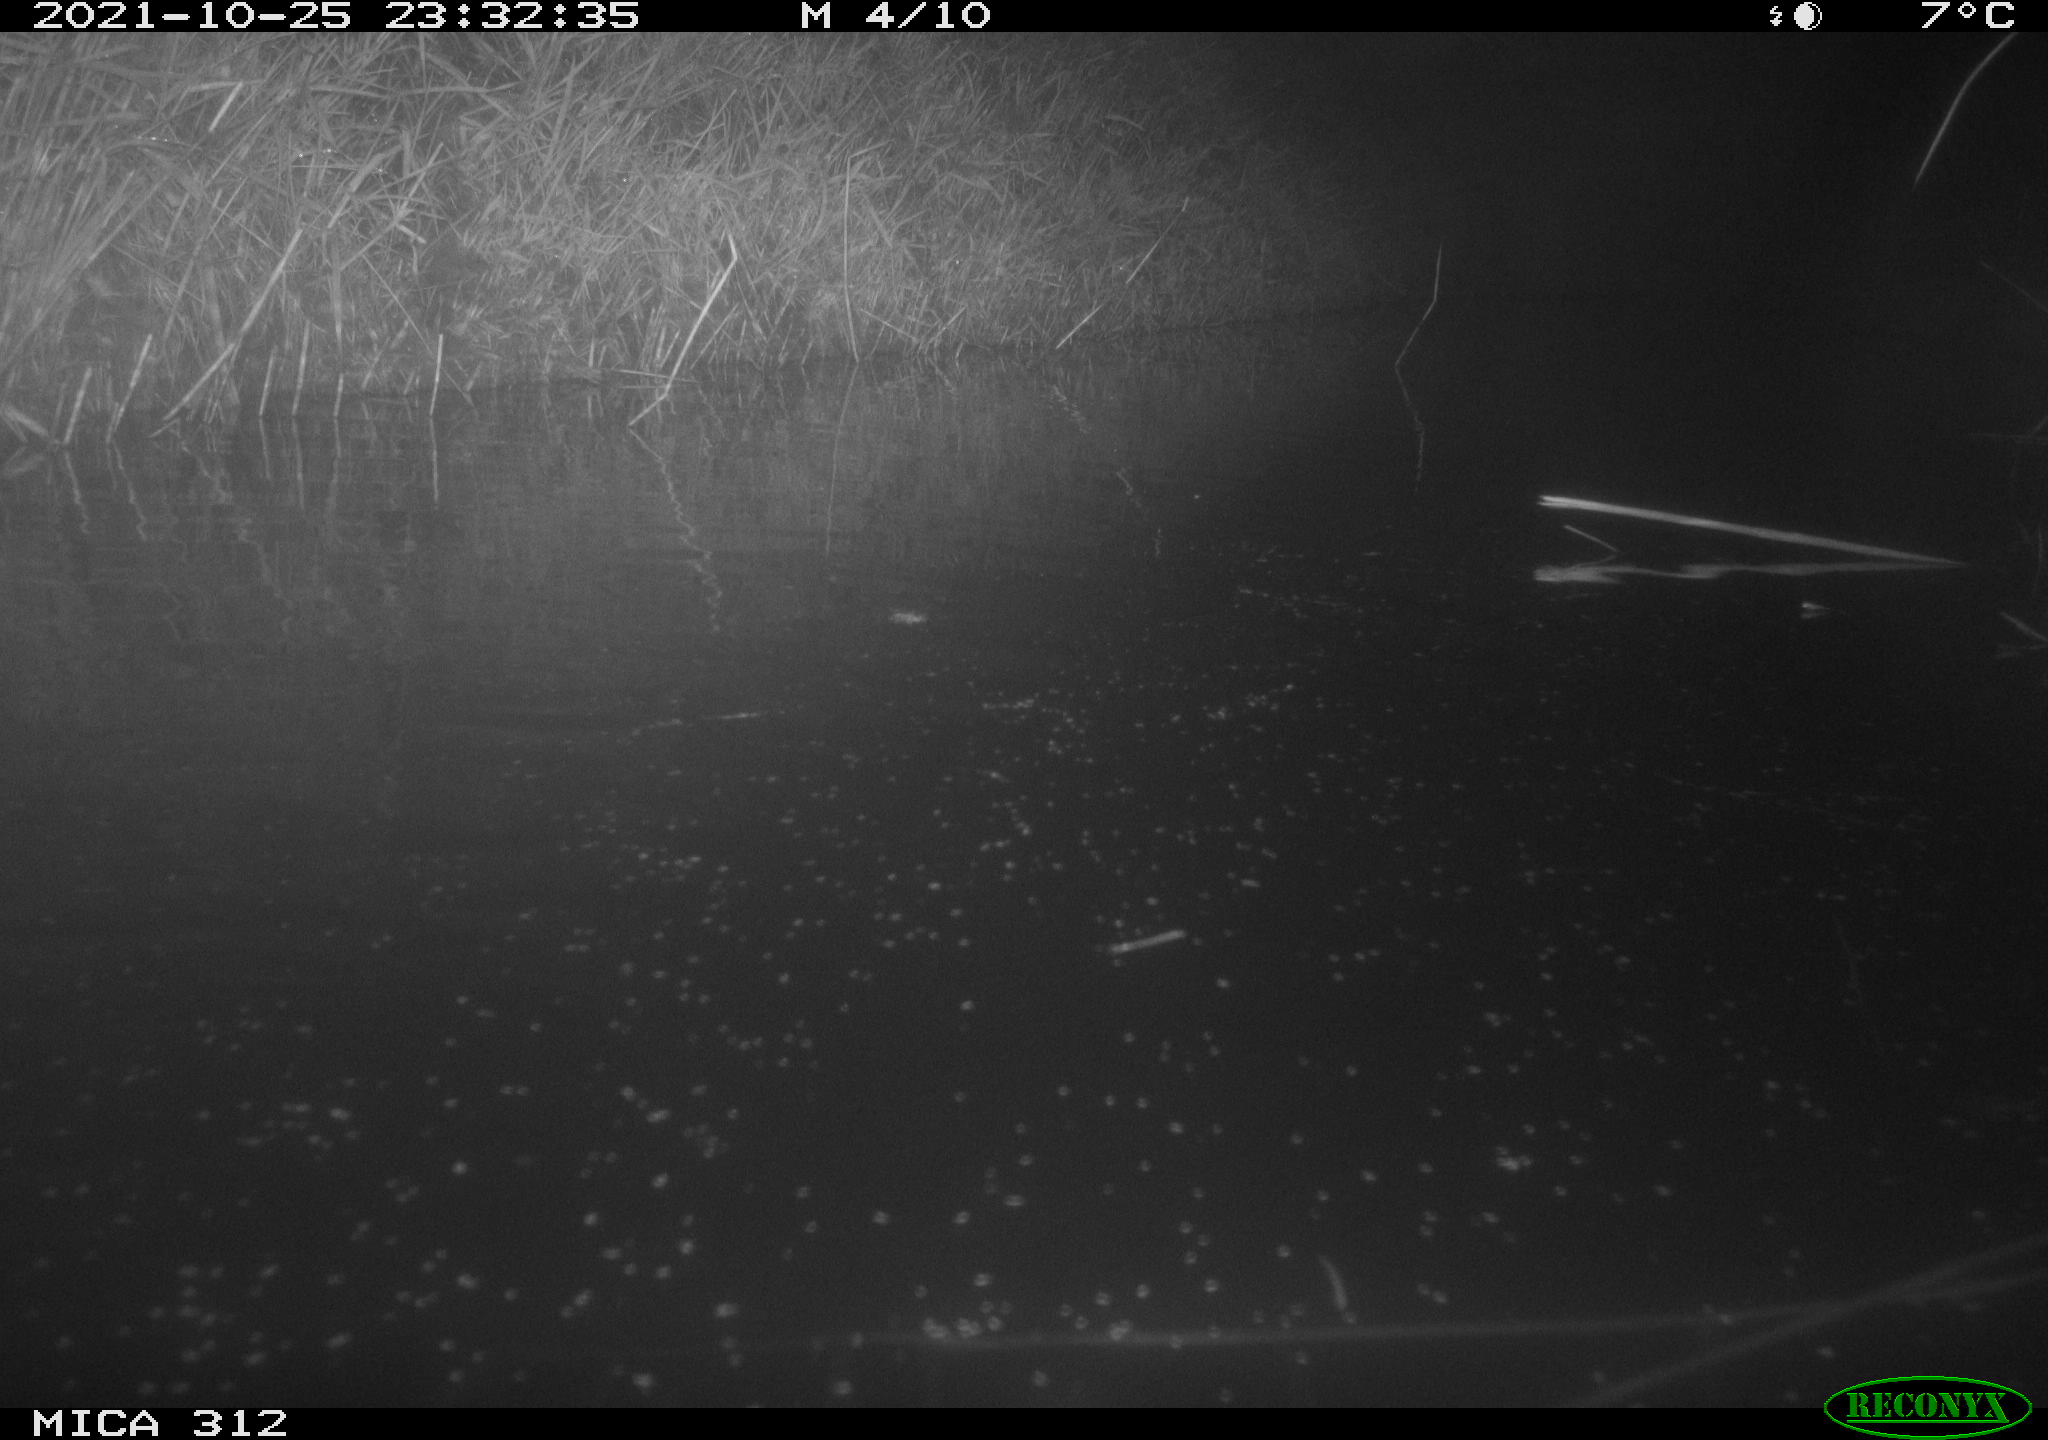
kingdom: Animalia
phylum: Chordata
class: Mammalia
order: Rodentia
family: Muridae
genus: Rattus
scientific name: Rattus norvegicus
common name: Brown rat
